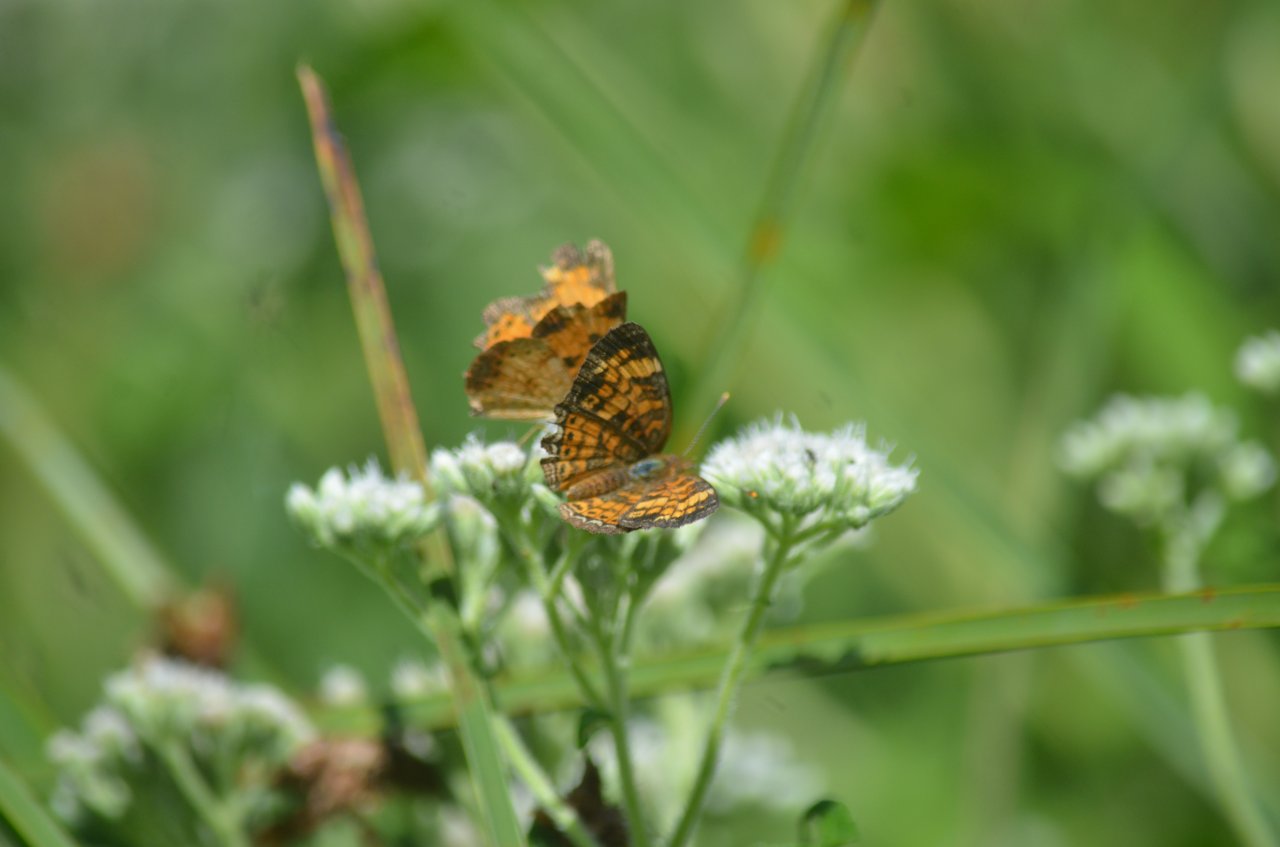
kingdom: Animalia
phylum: Arthropoda
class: Insecta
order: Lepidoptera
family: Nymphalidae
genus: Phyciodes
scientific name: Phyciodes tharos
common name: Pearl Crescent
